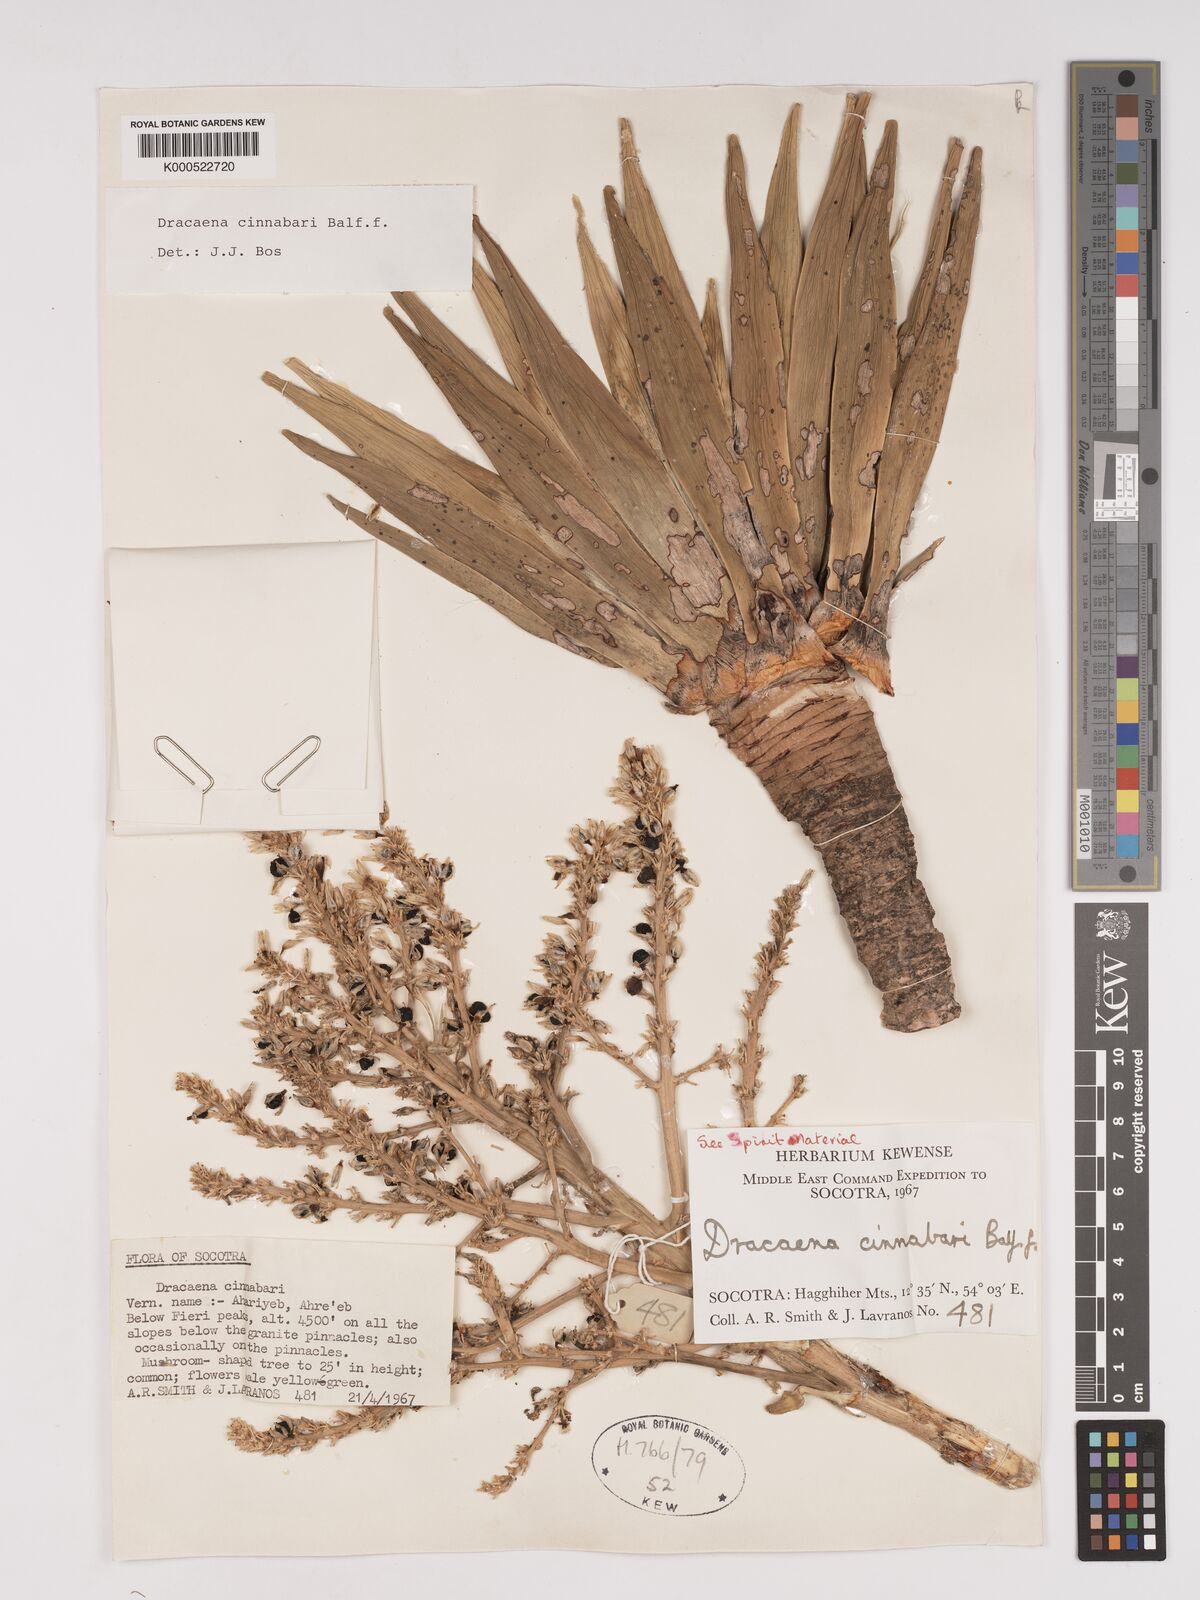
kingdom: Plantae
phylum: Tracheophyta
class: Liliopsida
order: Asparagales
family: Asparagaceae
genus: Dracaena
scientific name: Dracaena cinnabari
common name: Dragon's blood tree
